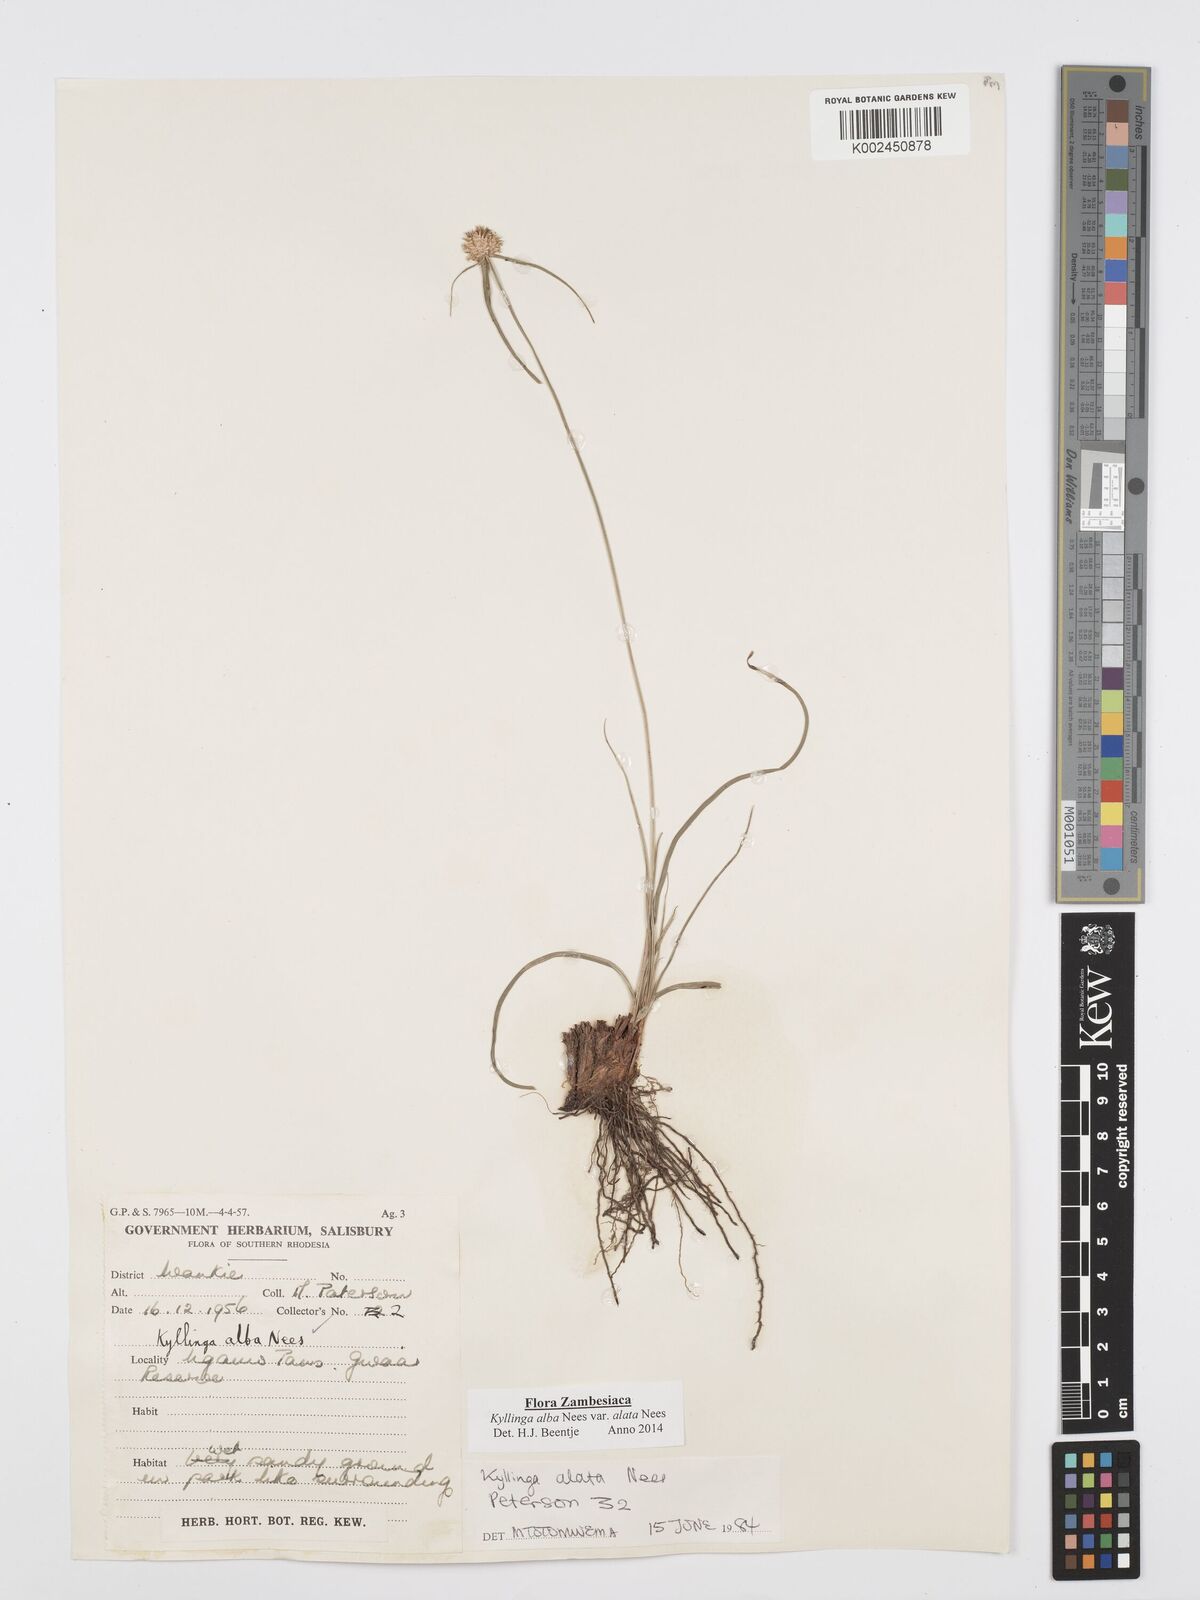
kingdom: Plantae
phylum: Tracheophyta
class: Liliopsida
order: Poales
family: Cyperaceae
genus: Cyperus
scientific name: Cyperus alatus
